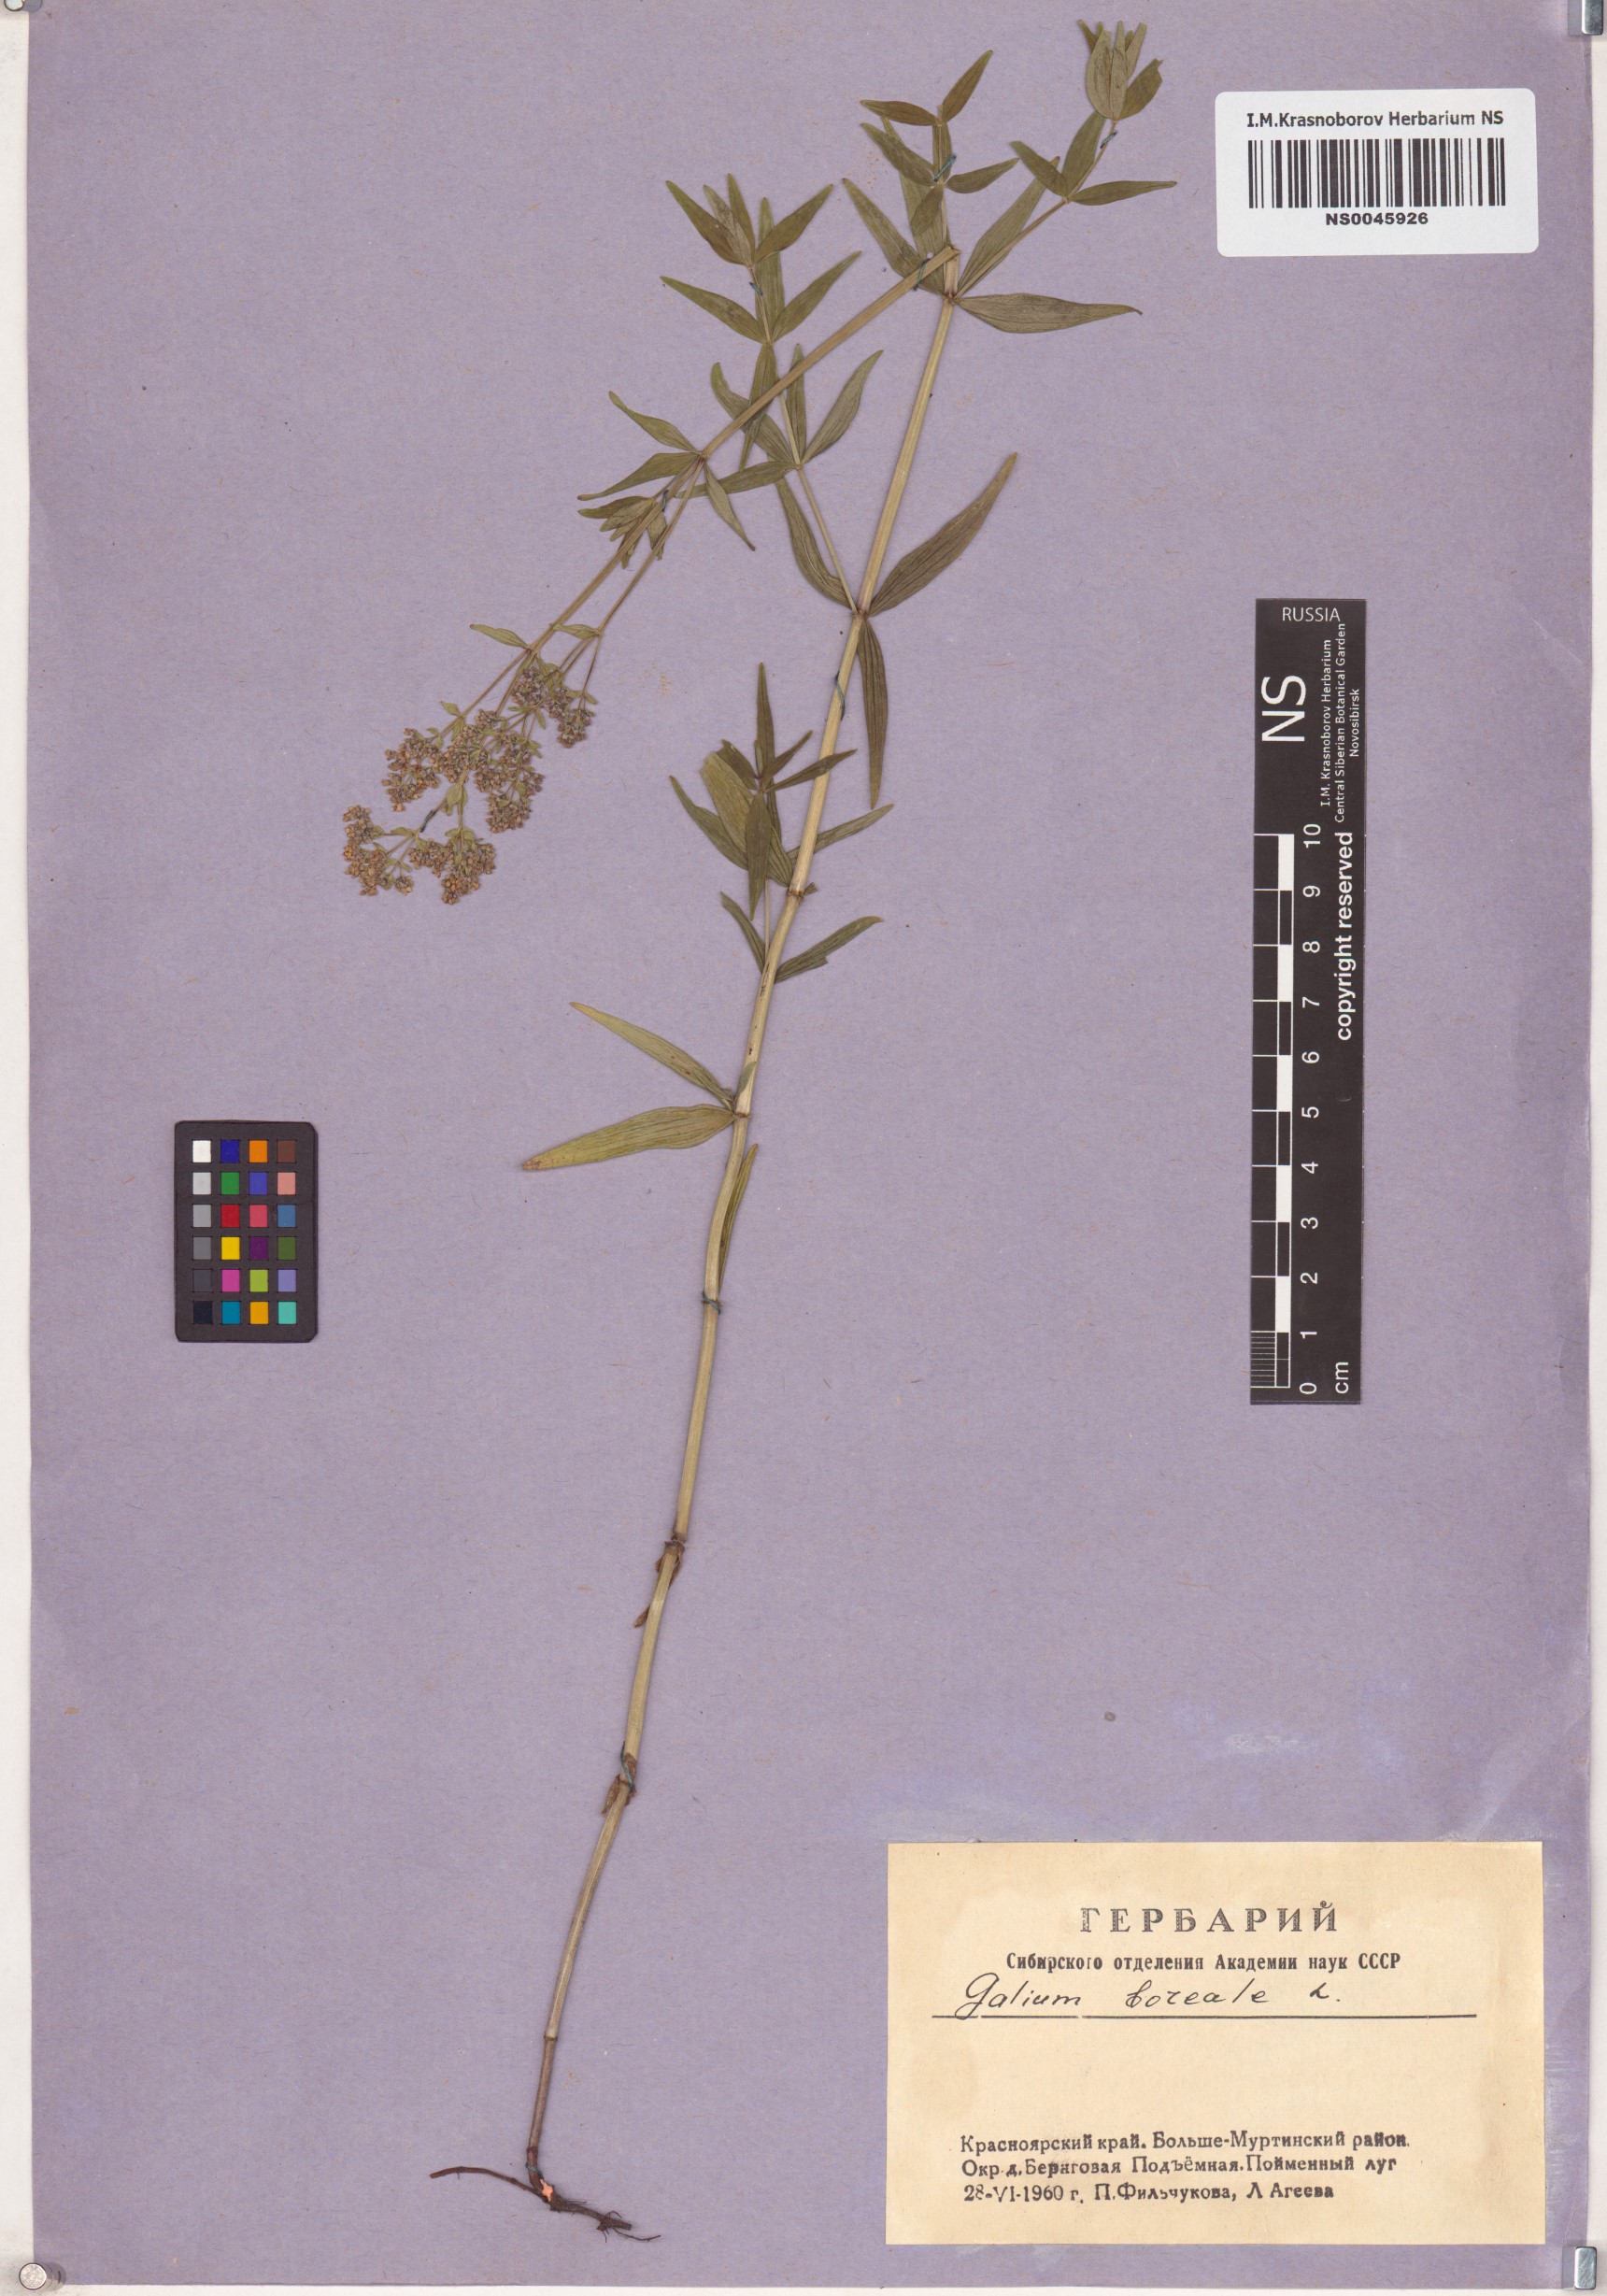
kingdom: Plantae
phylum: Tracheophyta
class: Magnoliopsida
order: Gentianales
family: Rubiaceae
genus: Galium
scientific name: Galium boreale
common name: Northern bedstraw
